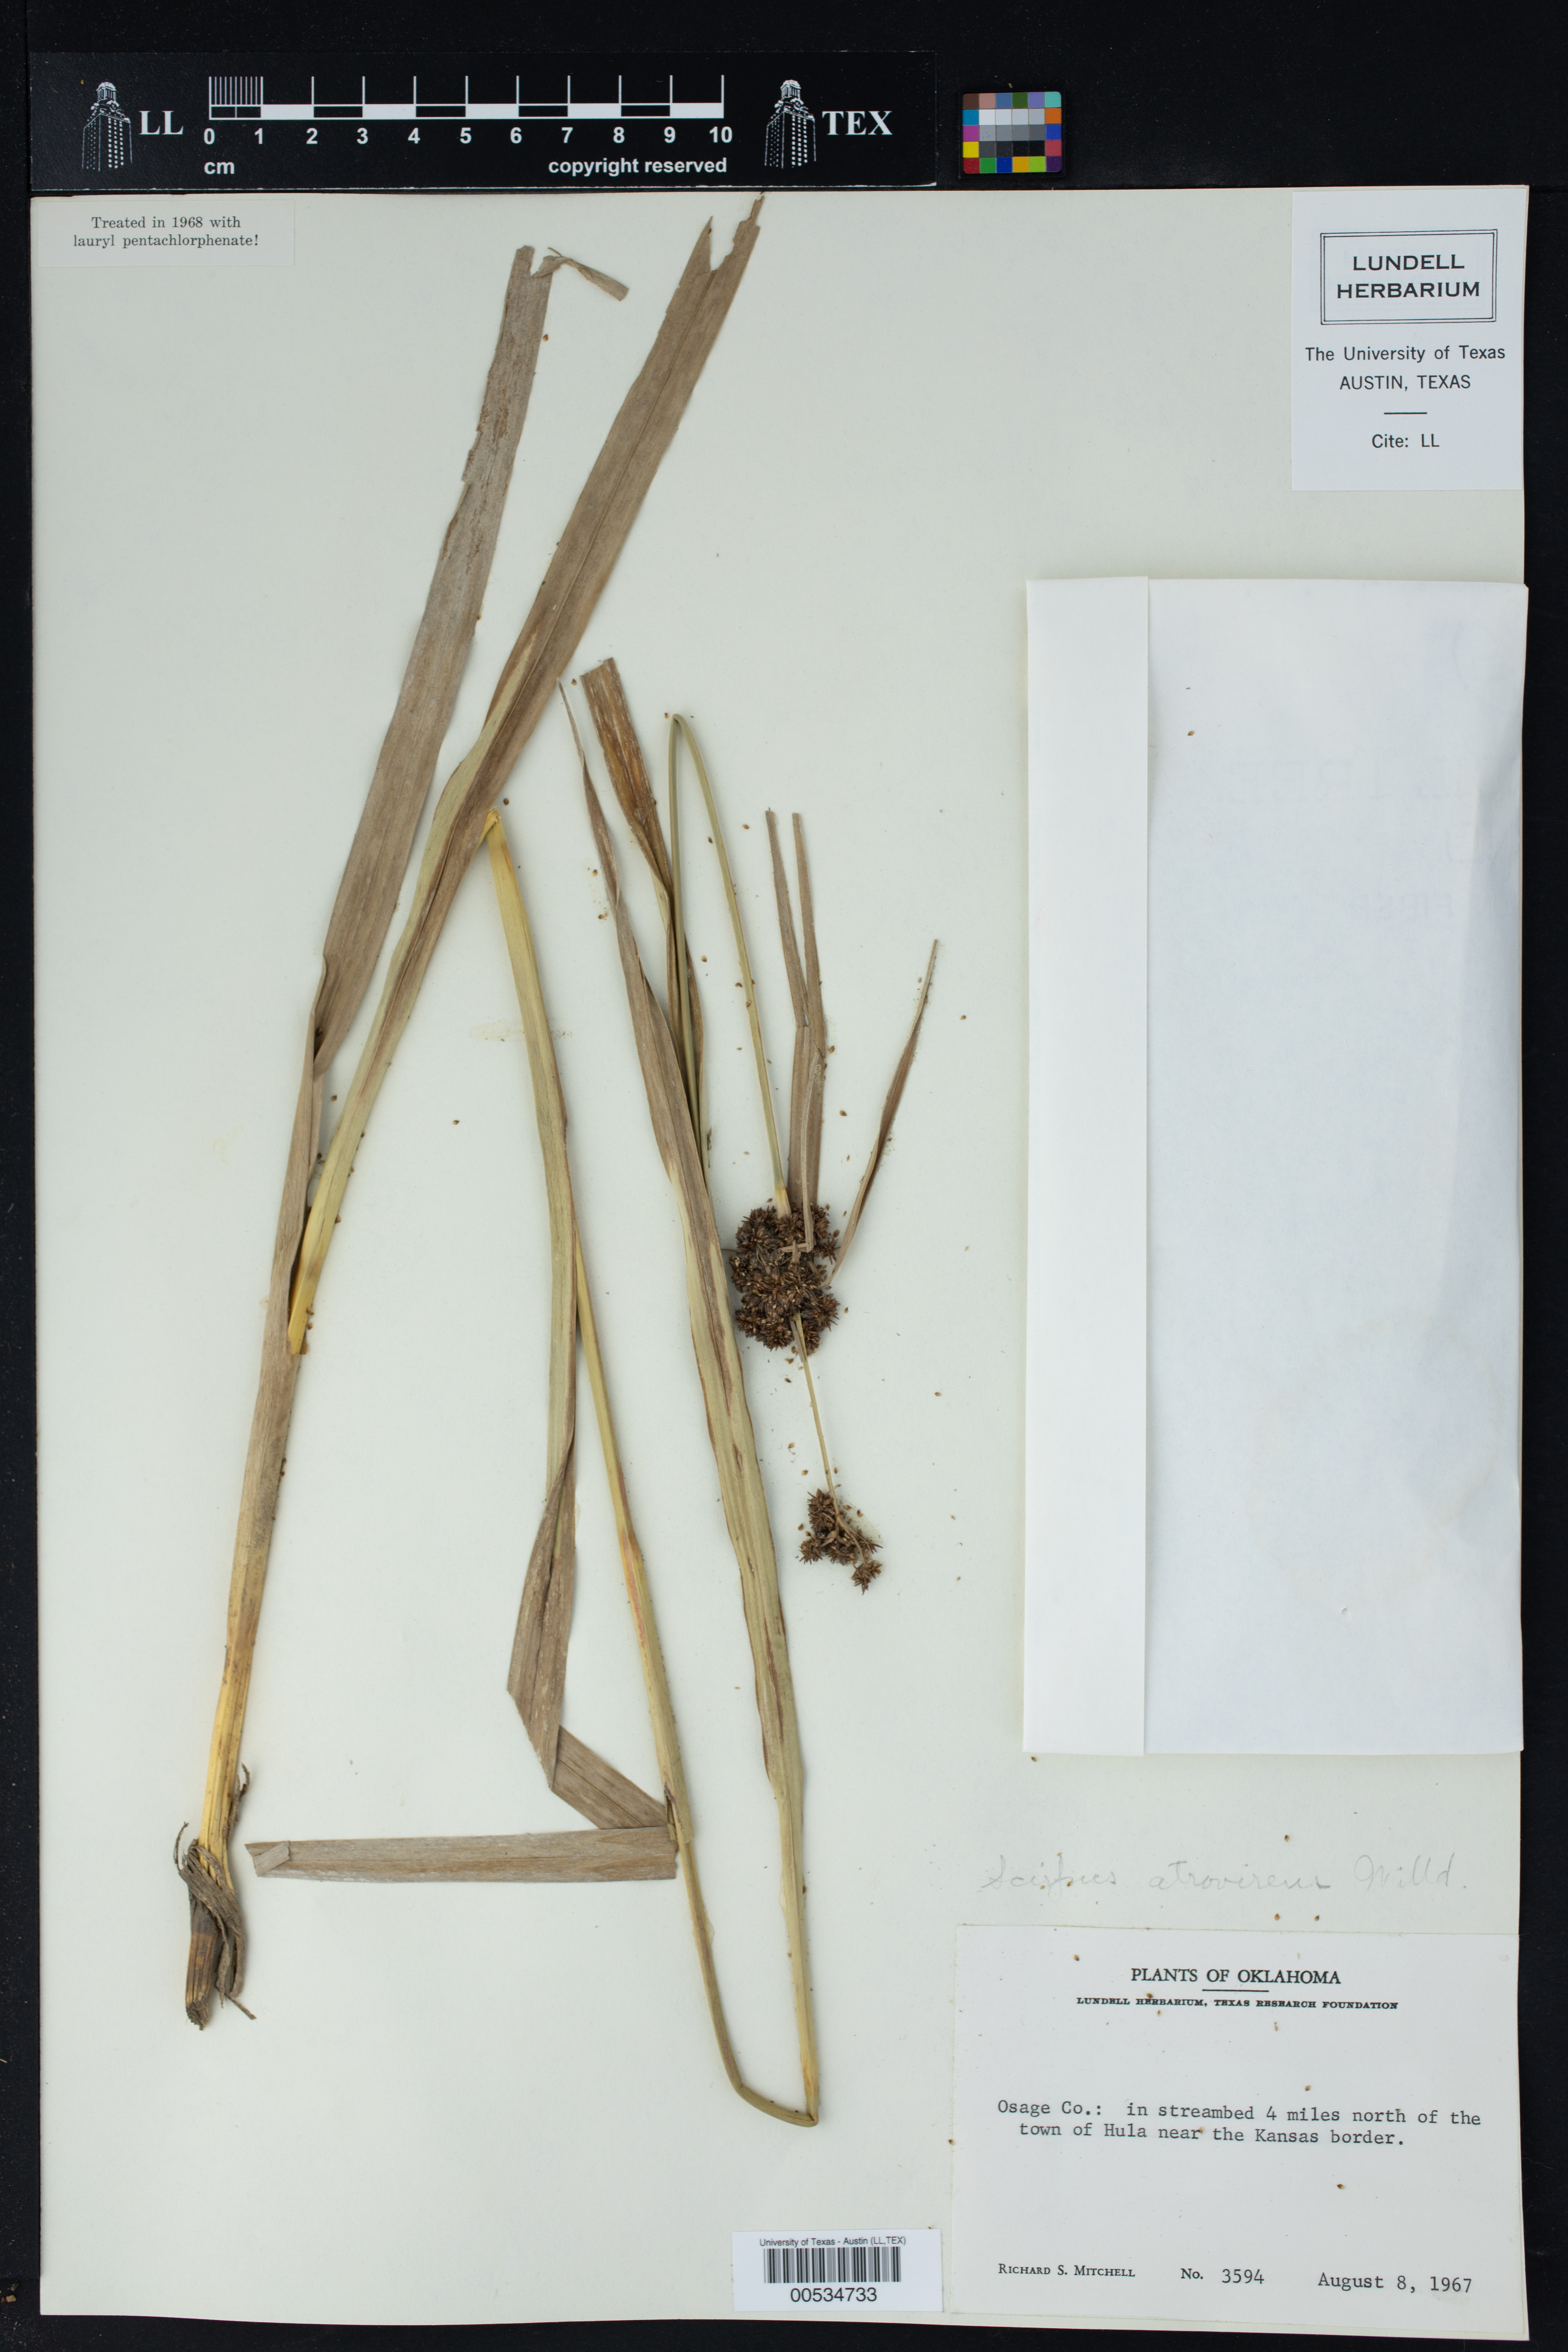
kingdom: Plantae
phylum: Tracheophyta
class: Liliopsida
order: Poales
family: Cyperaceae
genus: Scirpus
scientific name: Scirpus atrovirens
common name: Black bulrush
